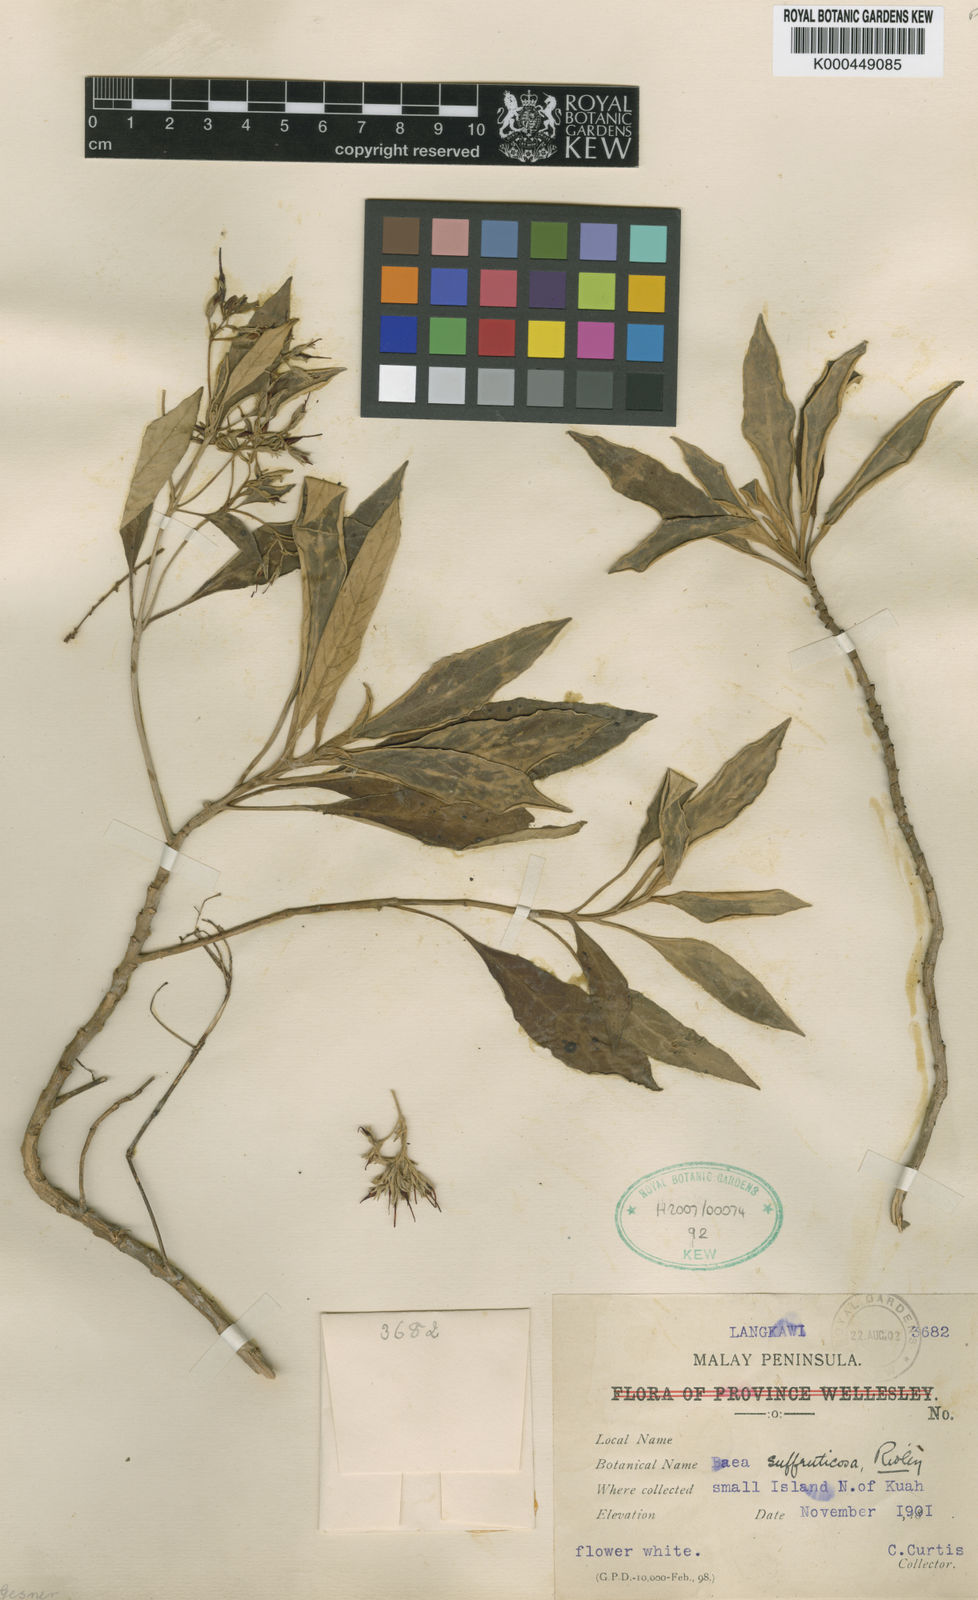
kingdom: Plantae
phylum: Tracheophyta
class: Magnoliopsida
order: Lamiales
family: Gesneriaceae
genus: Paraboea
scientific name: Paraboea suffruticosa
